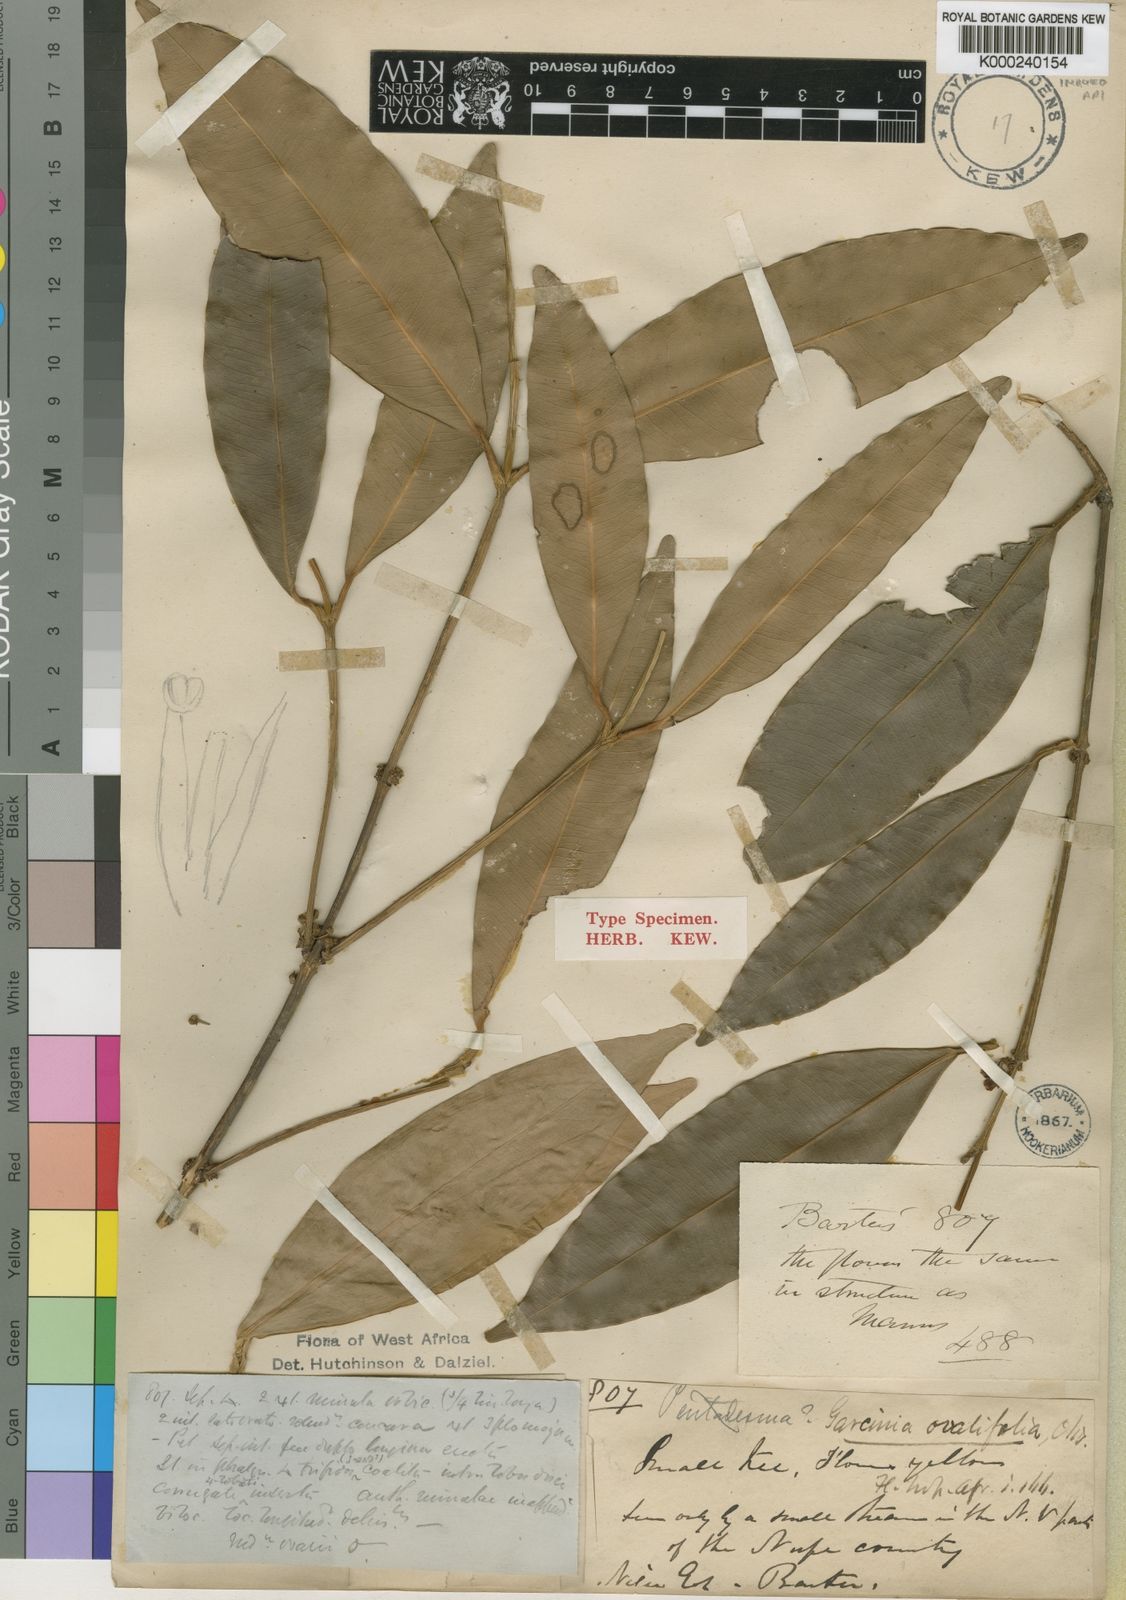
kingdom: Plantae
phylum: Tracheophyta
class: Magnoliopsida
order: Malpighiales
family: Clusiaceae
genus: Garcinia
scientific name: Garcinia ovalifolia
